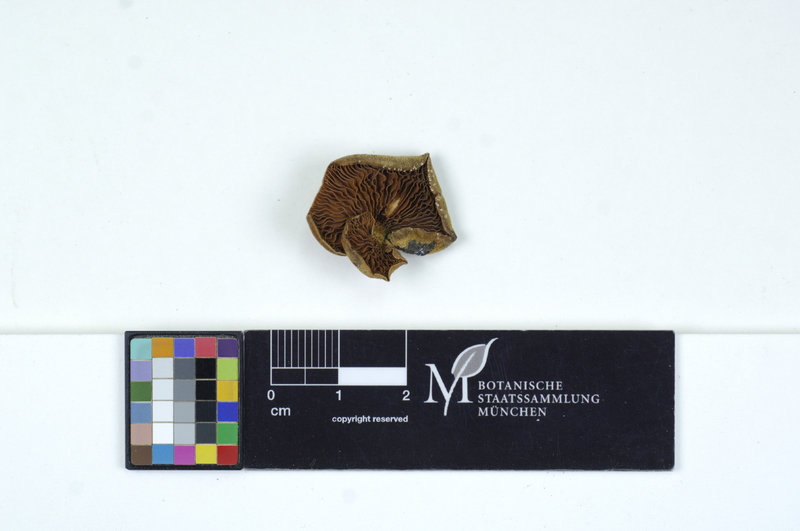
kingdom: Plantae
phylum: Tracheophyta
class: Magnoliopsida
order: Fagales
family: Betulaceae
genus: Betula
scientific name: Betula
